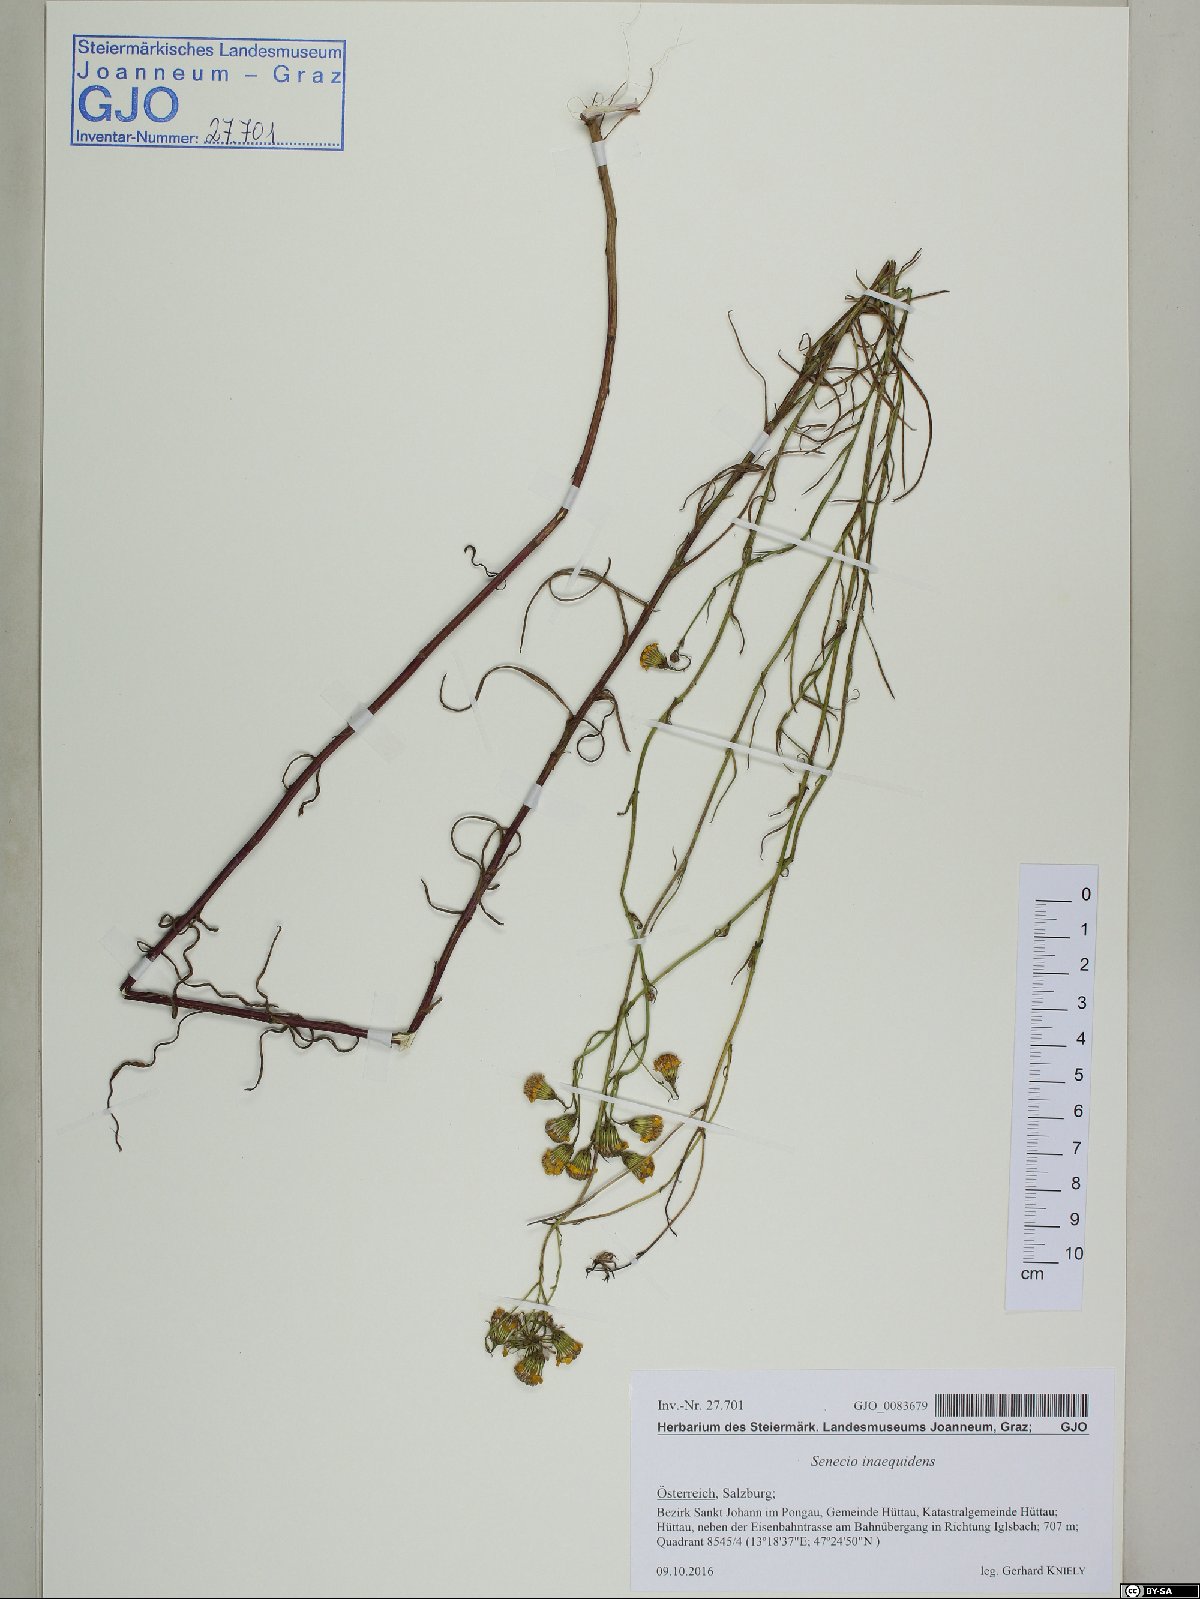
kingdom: Plantae
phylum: Tracheophyta
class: Magnoliopsida
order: Asterales
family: Asteraceae
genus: Senecio
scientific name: Senecio inaequidens
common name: Narrow-leaved ragwort
